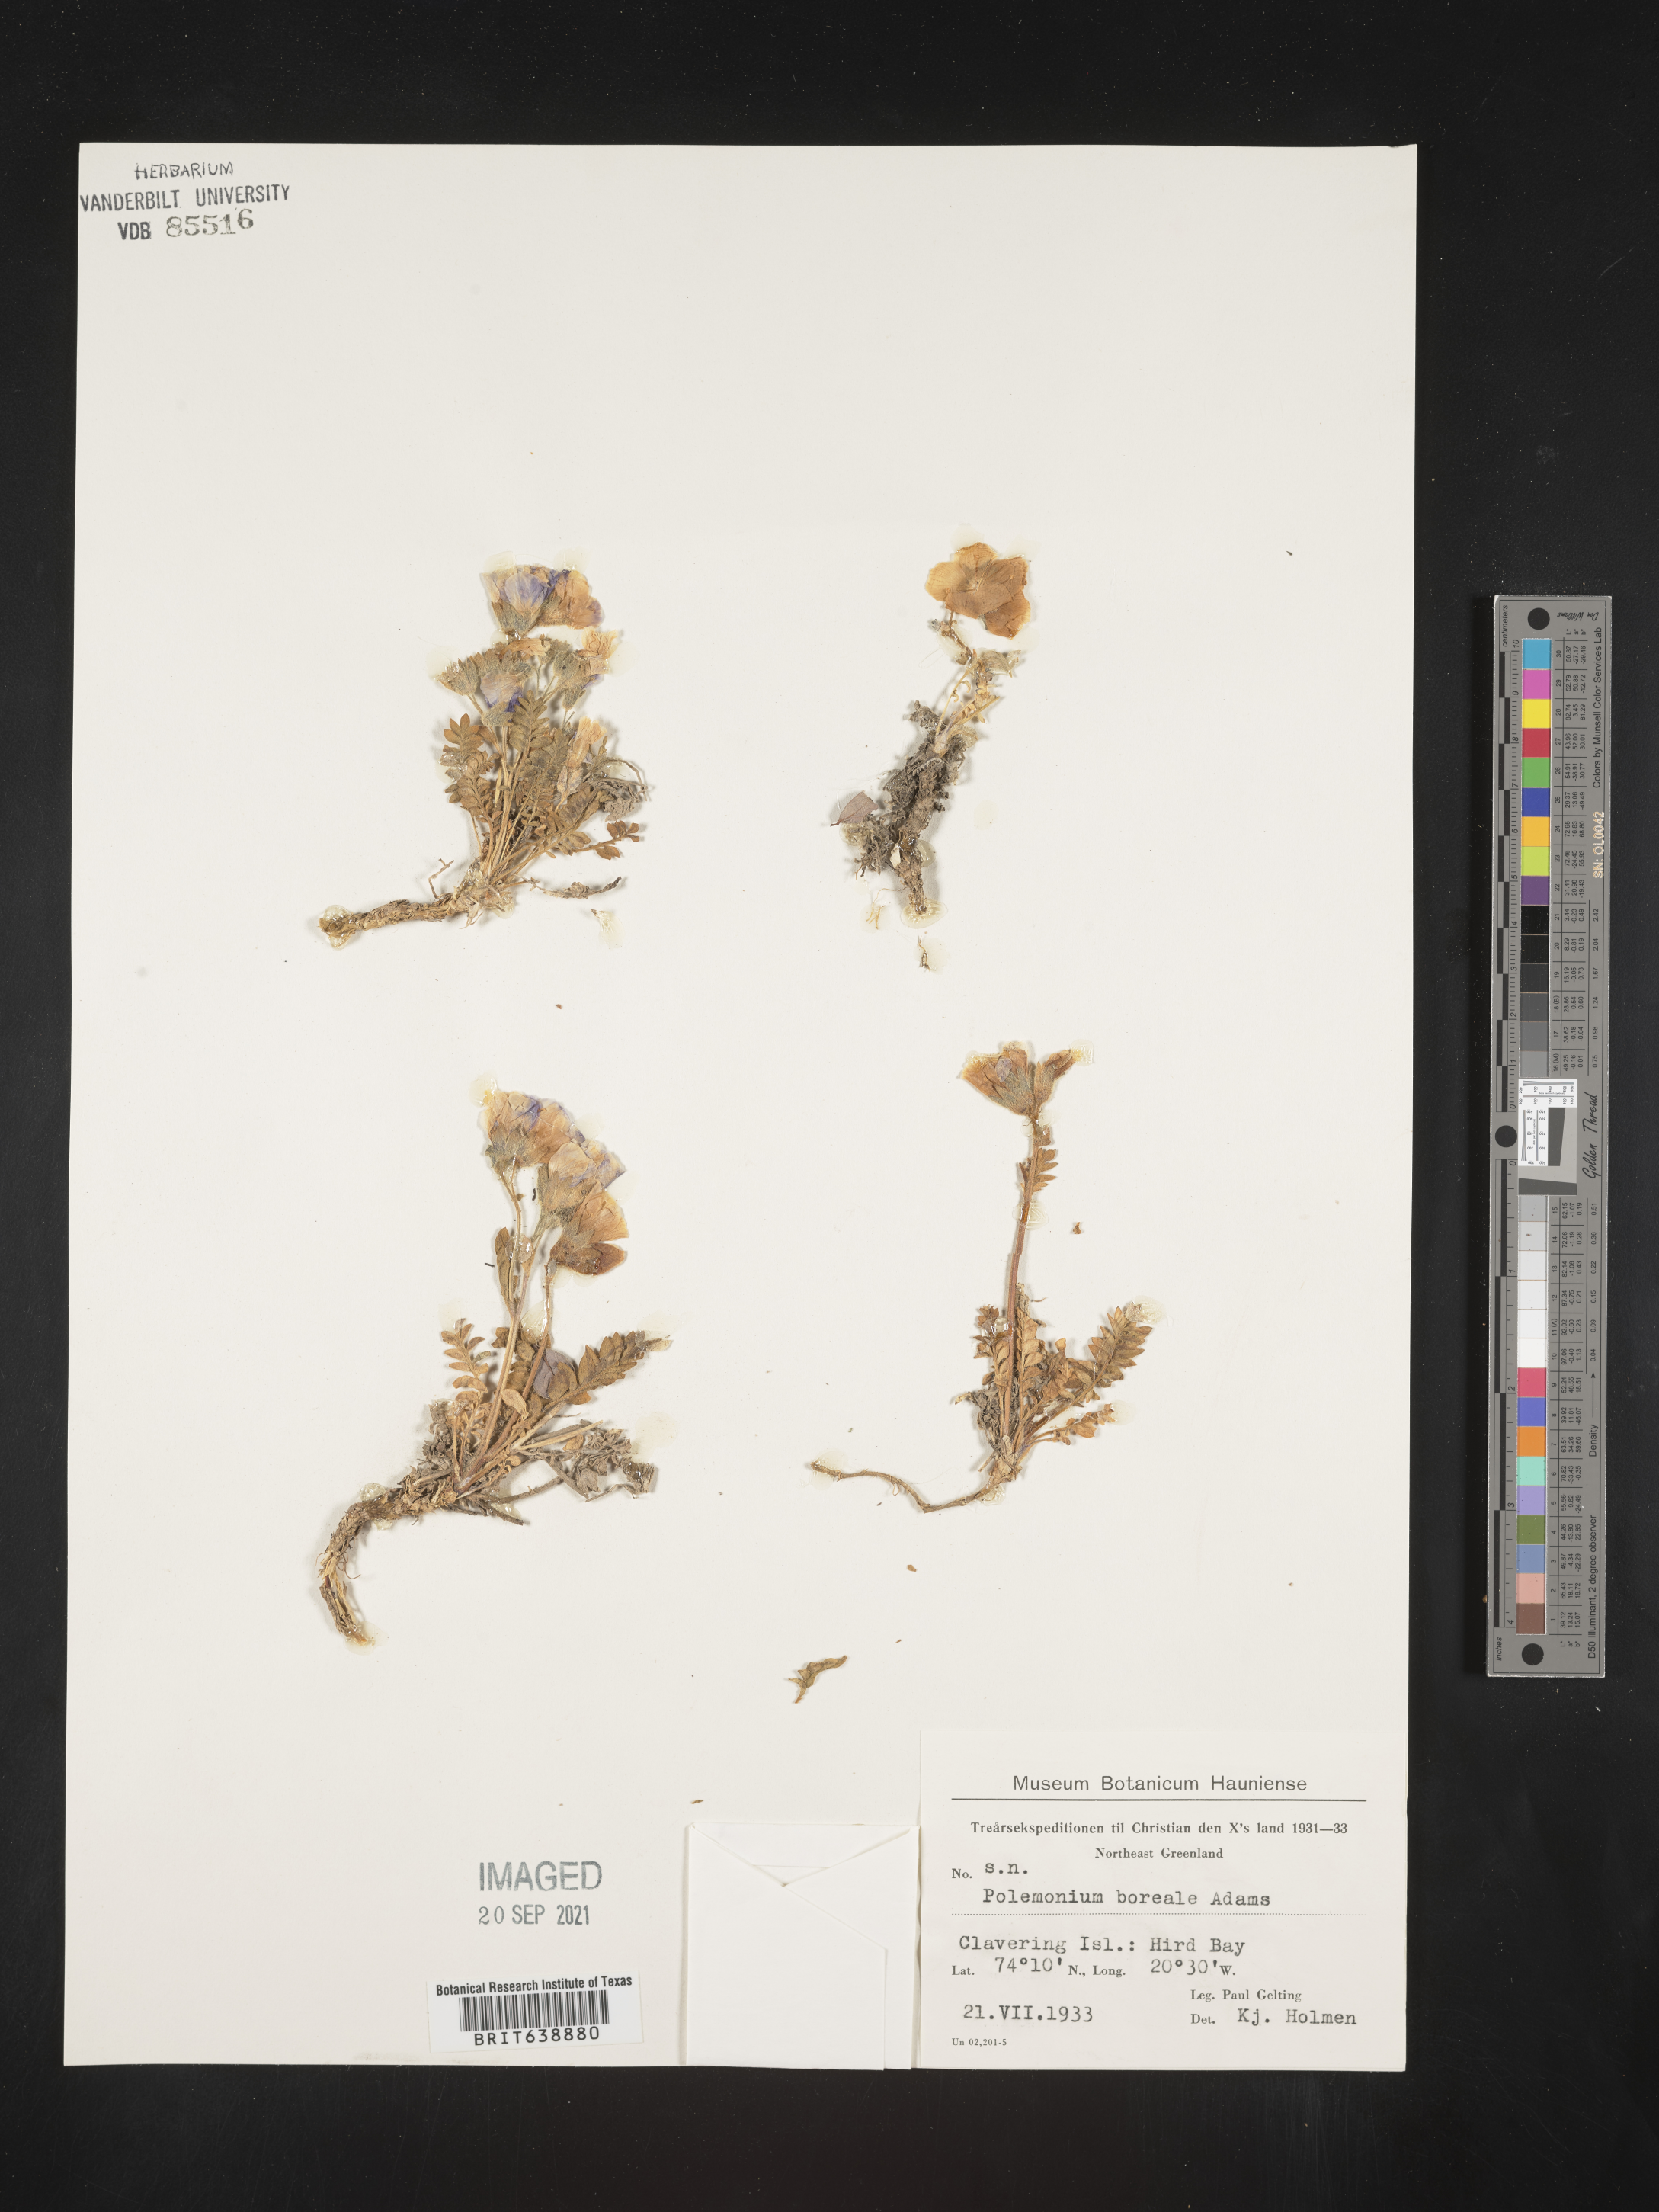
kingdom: Plantae
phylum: Tracheophyta
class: Magnoliopsida
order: Ericales
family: Polemoniaceae
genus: Polemonium
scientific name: Polemonium
